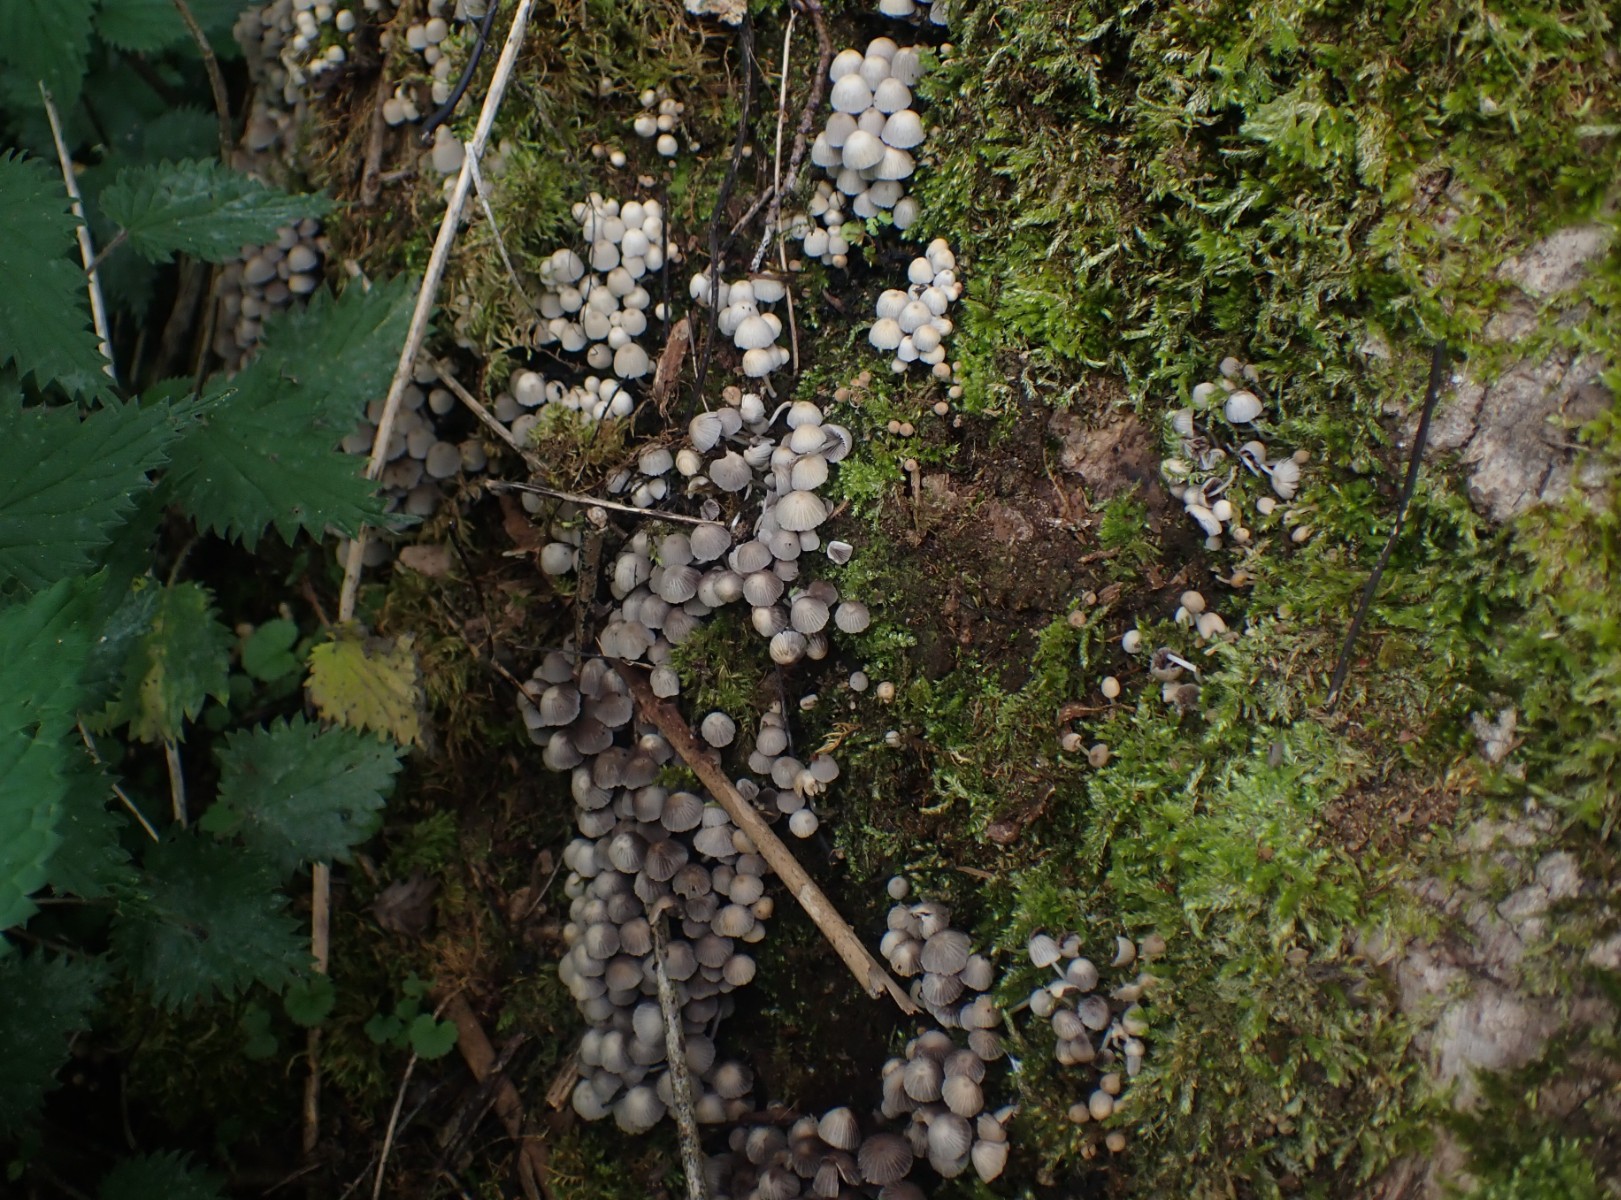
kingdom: Fungi
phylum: Basidiomycota
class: Agaricomycetes
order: Agaricales
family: Psathyrellaceae
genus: Coprinellus
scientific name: Coprinellus disseminatus
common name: bredsået blækhat
